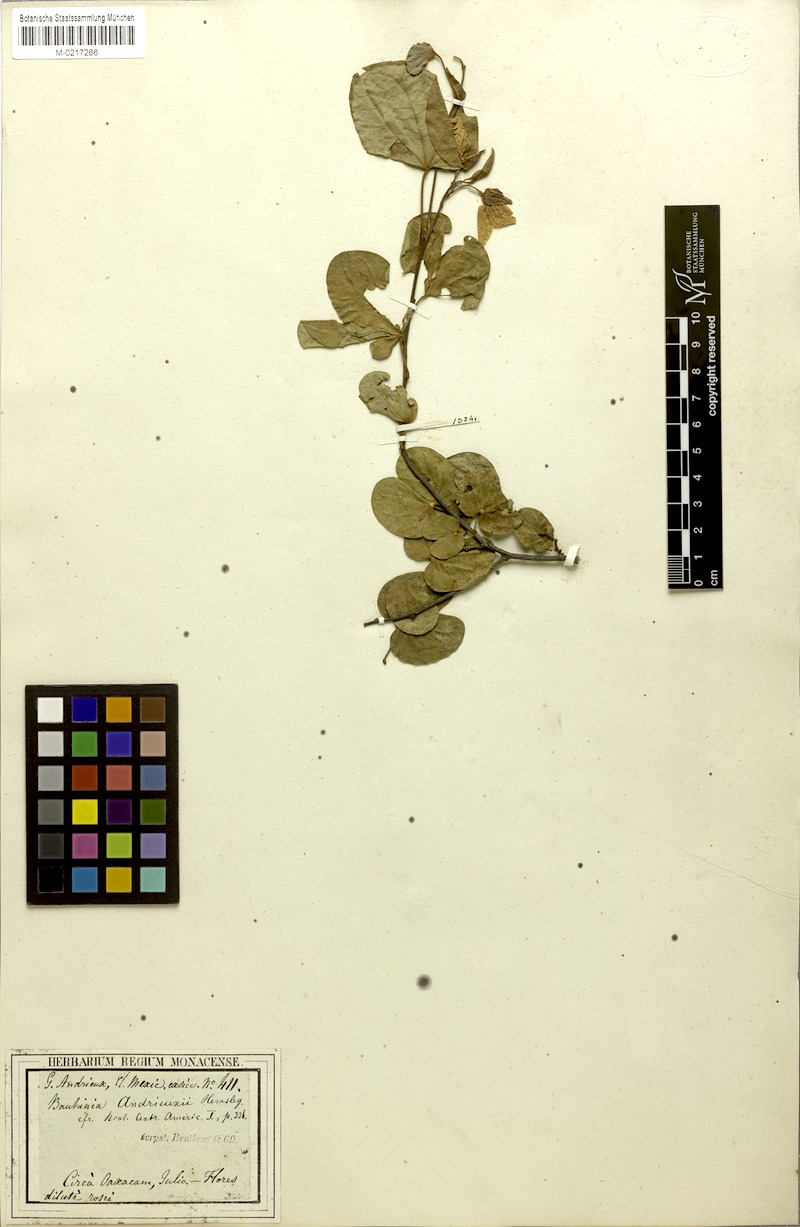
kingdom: Plantae
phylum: Tracheophyta
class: Magnoliopsida
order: Fabales
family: Fabaceae
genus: Bauhinia
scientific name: Bauhinia andrieuxii
